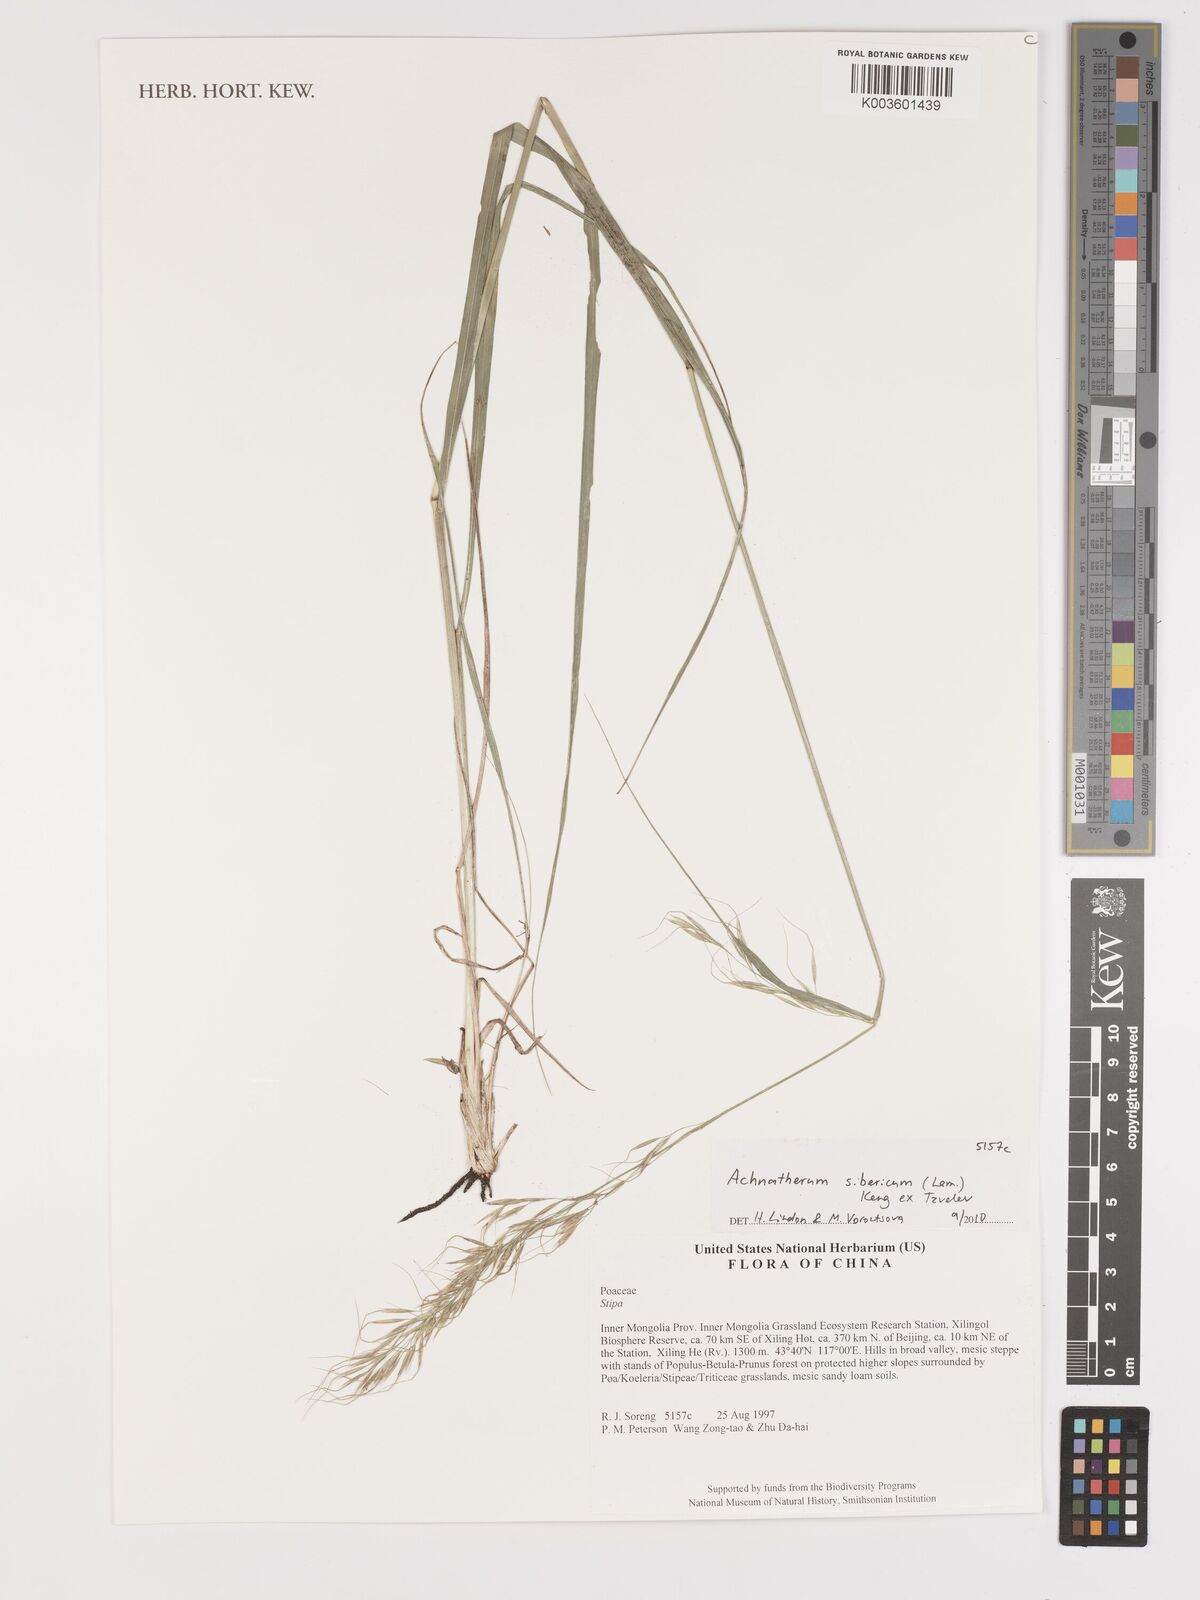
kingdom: Plantae
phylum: Tracheophyta
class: Liliopsida
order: Poales
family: Poaceae
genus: Achnatherum
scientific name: Achnatherum sibiricum
